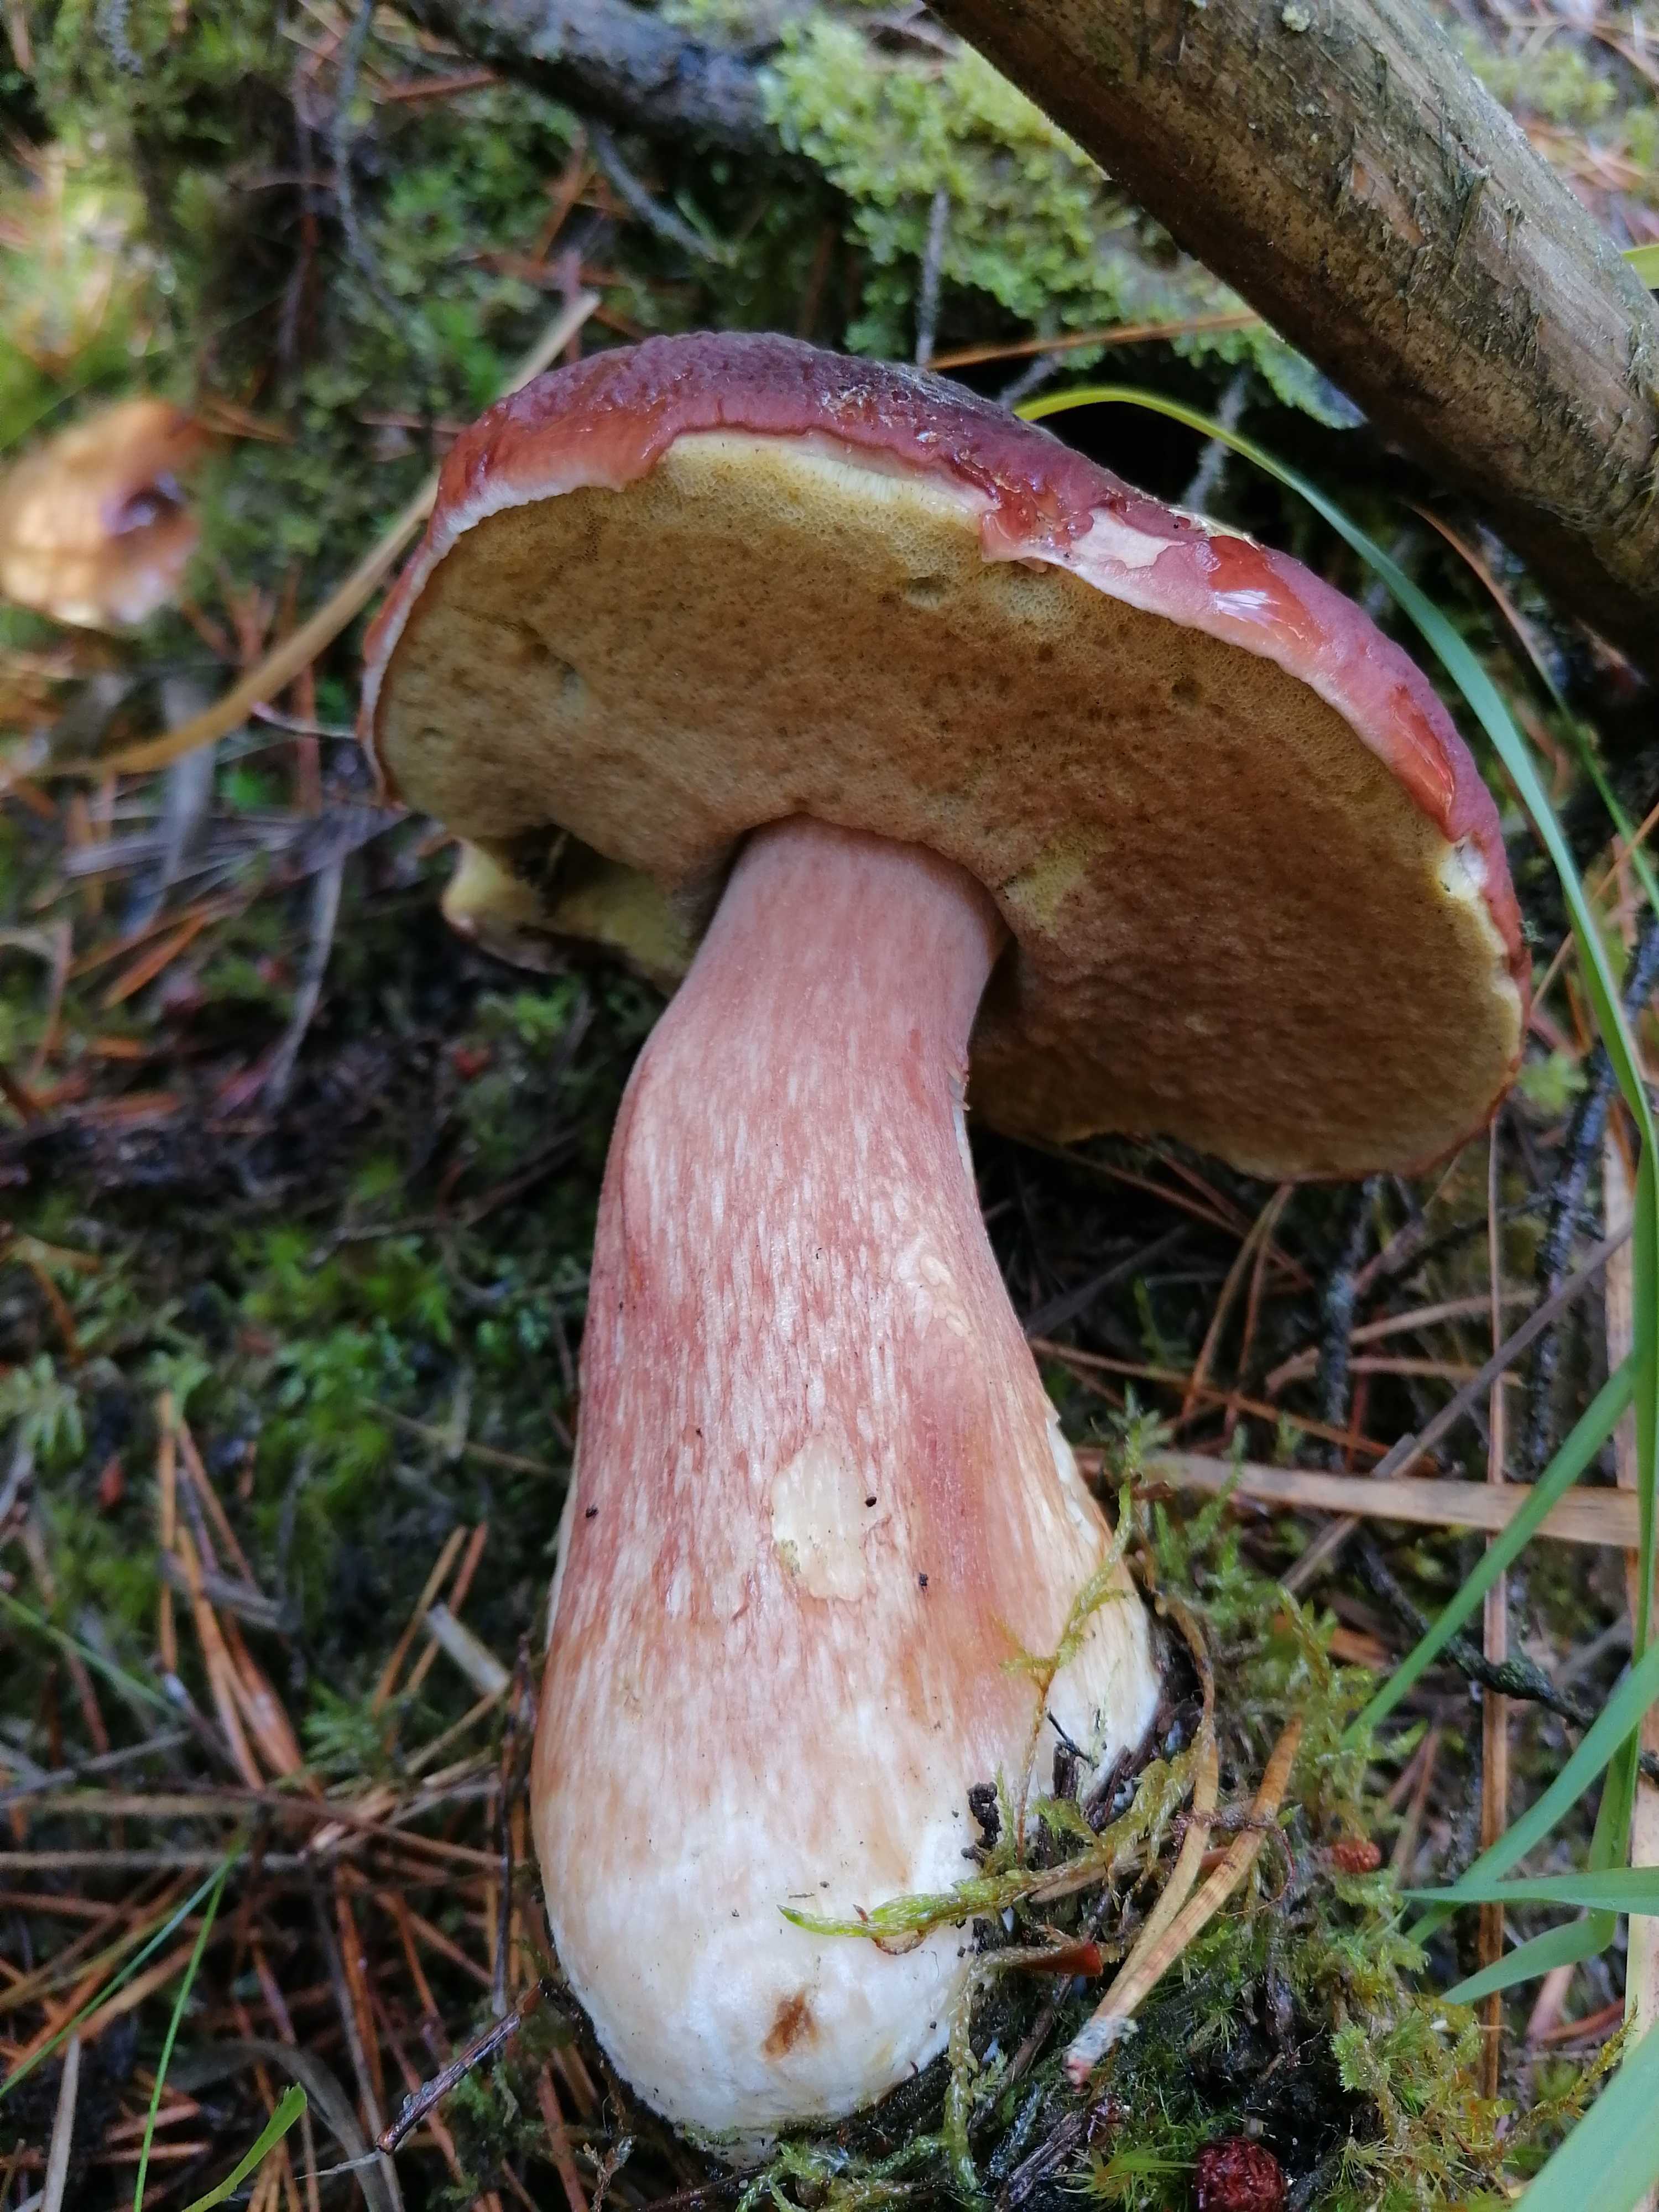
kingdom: Fungi
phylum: Basidiomycota
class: Agaricomycetes
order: Boletales
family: Boletaceae
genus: Boletus
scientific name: Boletus pinophilus
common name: rødbrun rørhat
